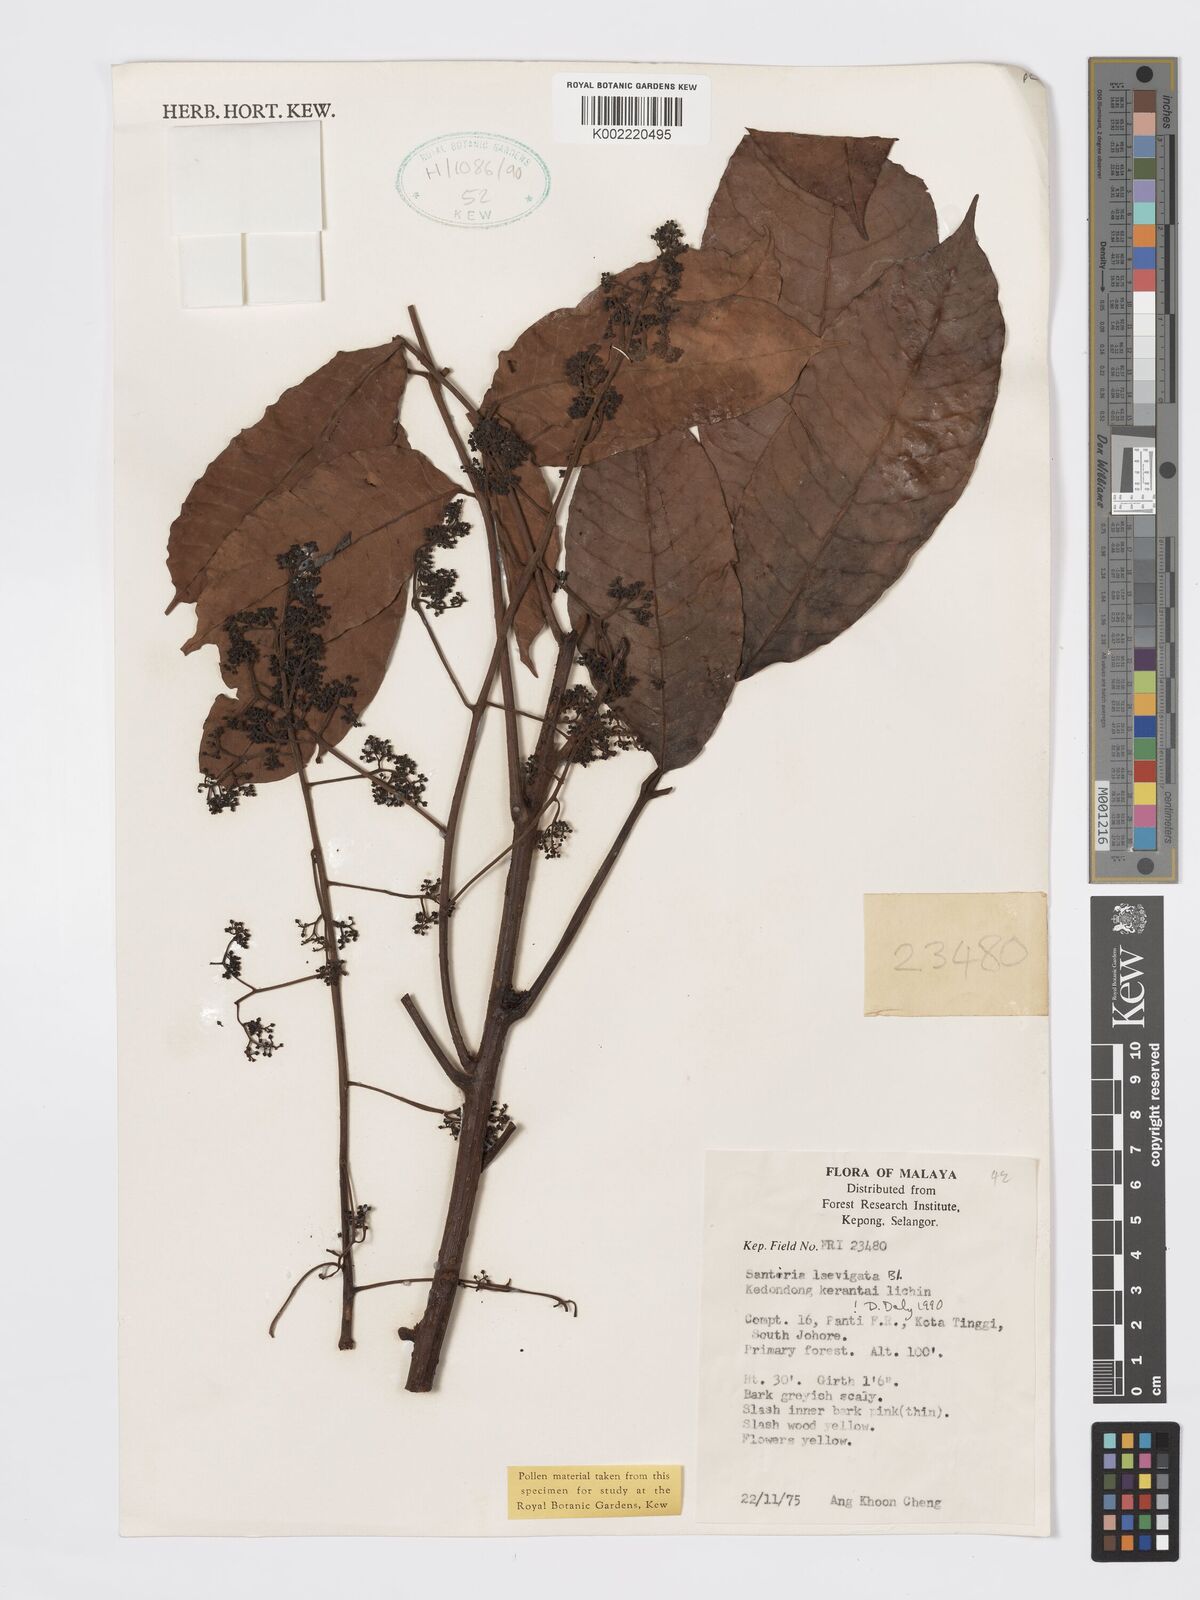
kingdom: Plantae
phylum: Tracheophyta
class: Magnoliopsida
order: Sapindales
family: Burseraceae
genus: Santiria
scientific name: Santiria laevigata
